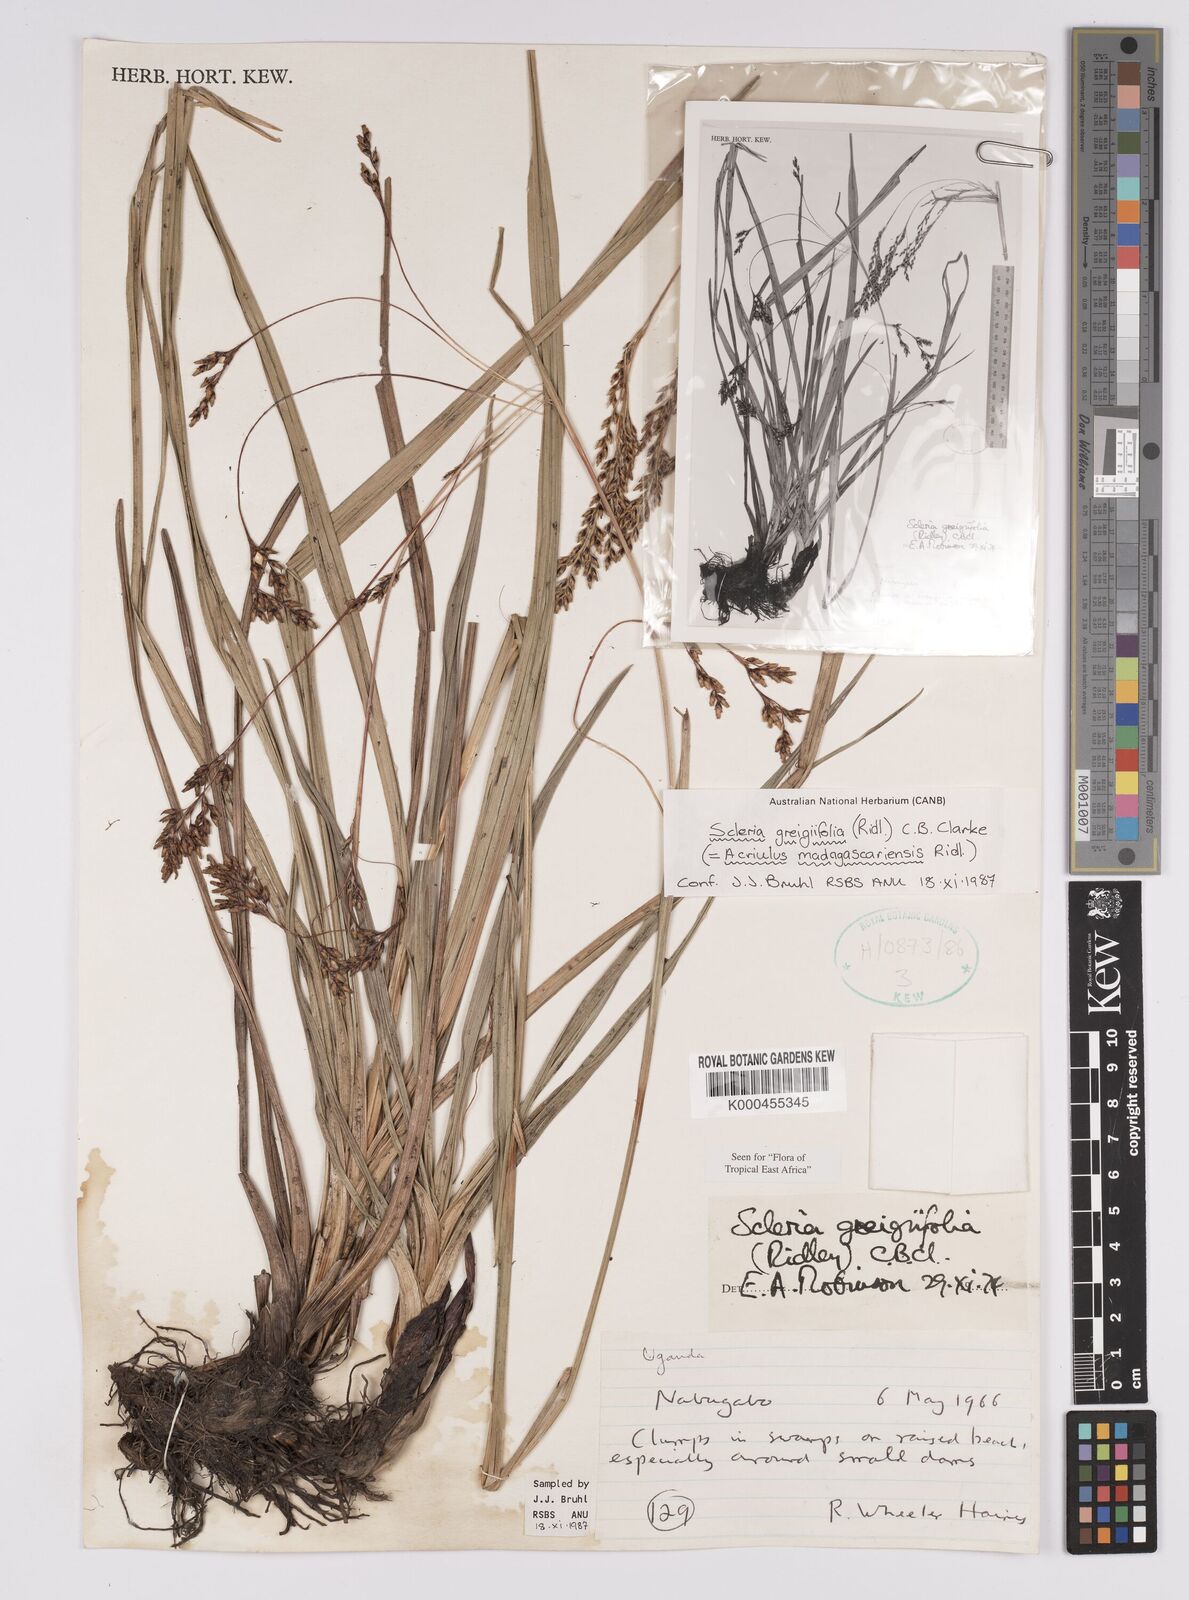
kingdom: Plantae
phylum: Tracheophyta
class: Liliopsida
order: Poales
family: Cyperaceae
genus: Scleria
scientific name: Scleria greigiifolia
